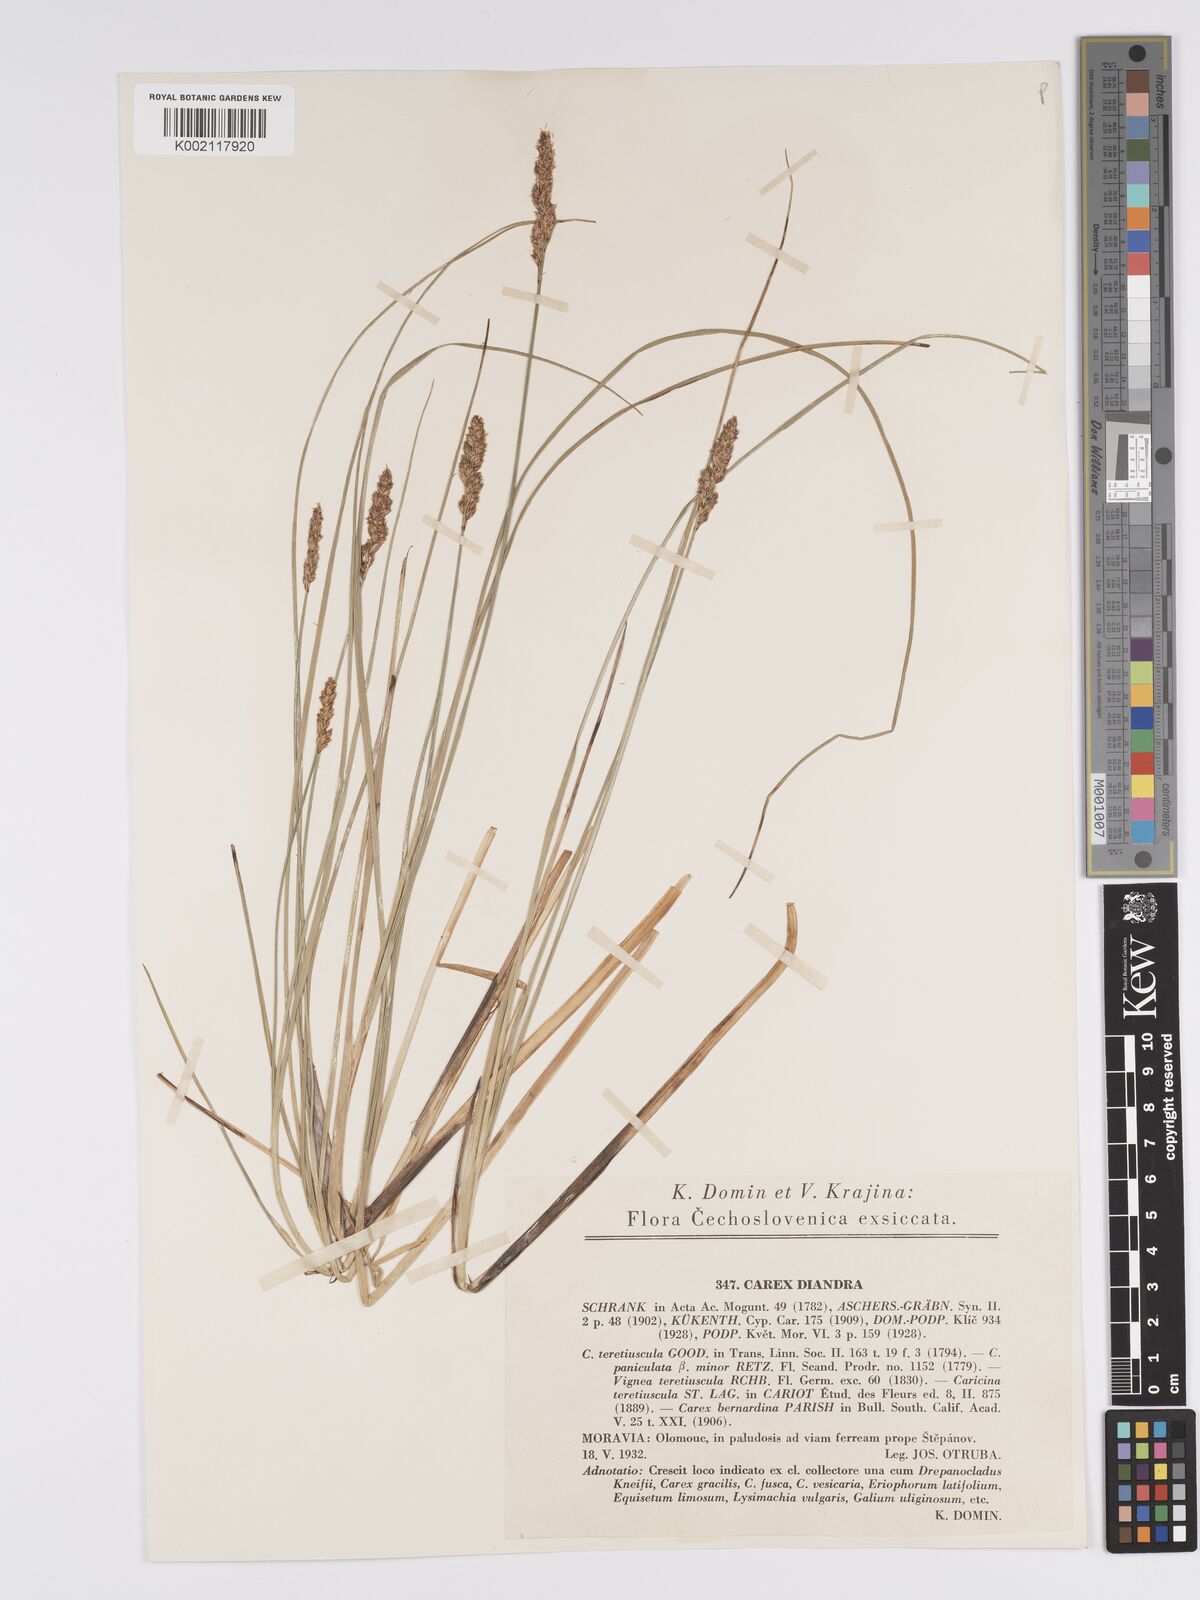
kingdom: Plantae
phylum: Tracheophyta
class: Liliopsida
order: Poales
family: Cyperaceae
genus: Carex
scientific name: Carex diandra
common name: Lesser tussock-sedge
